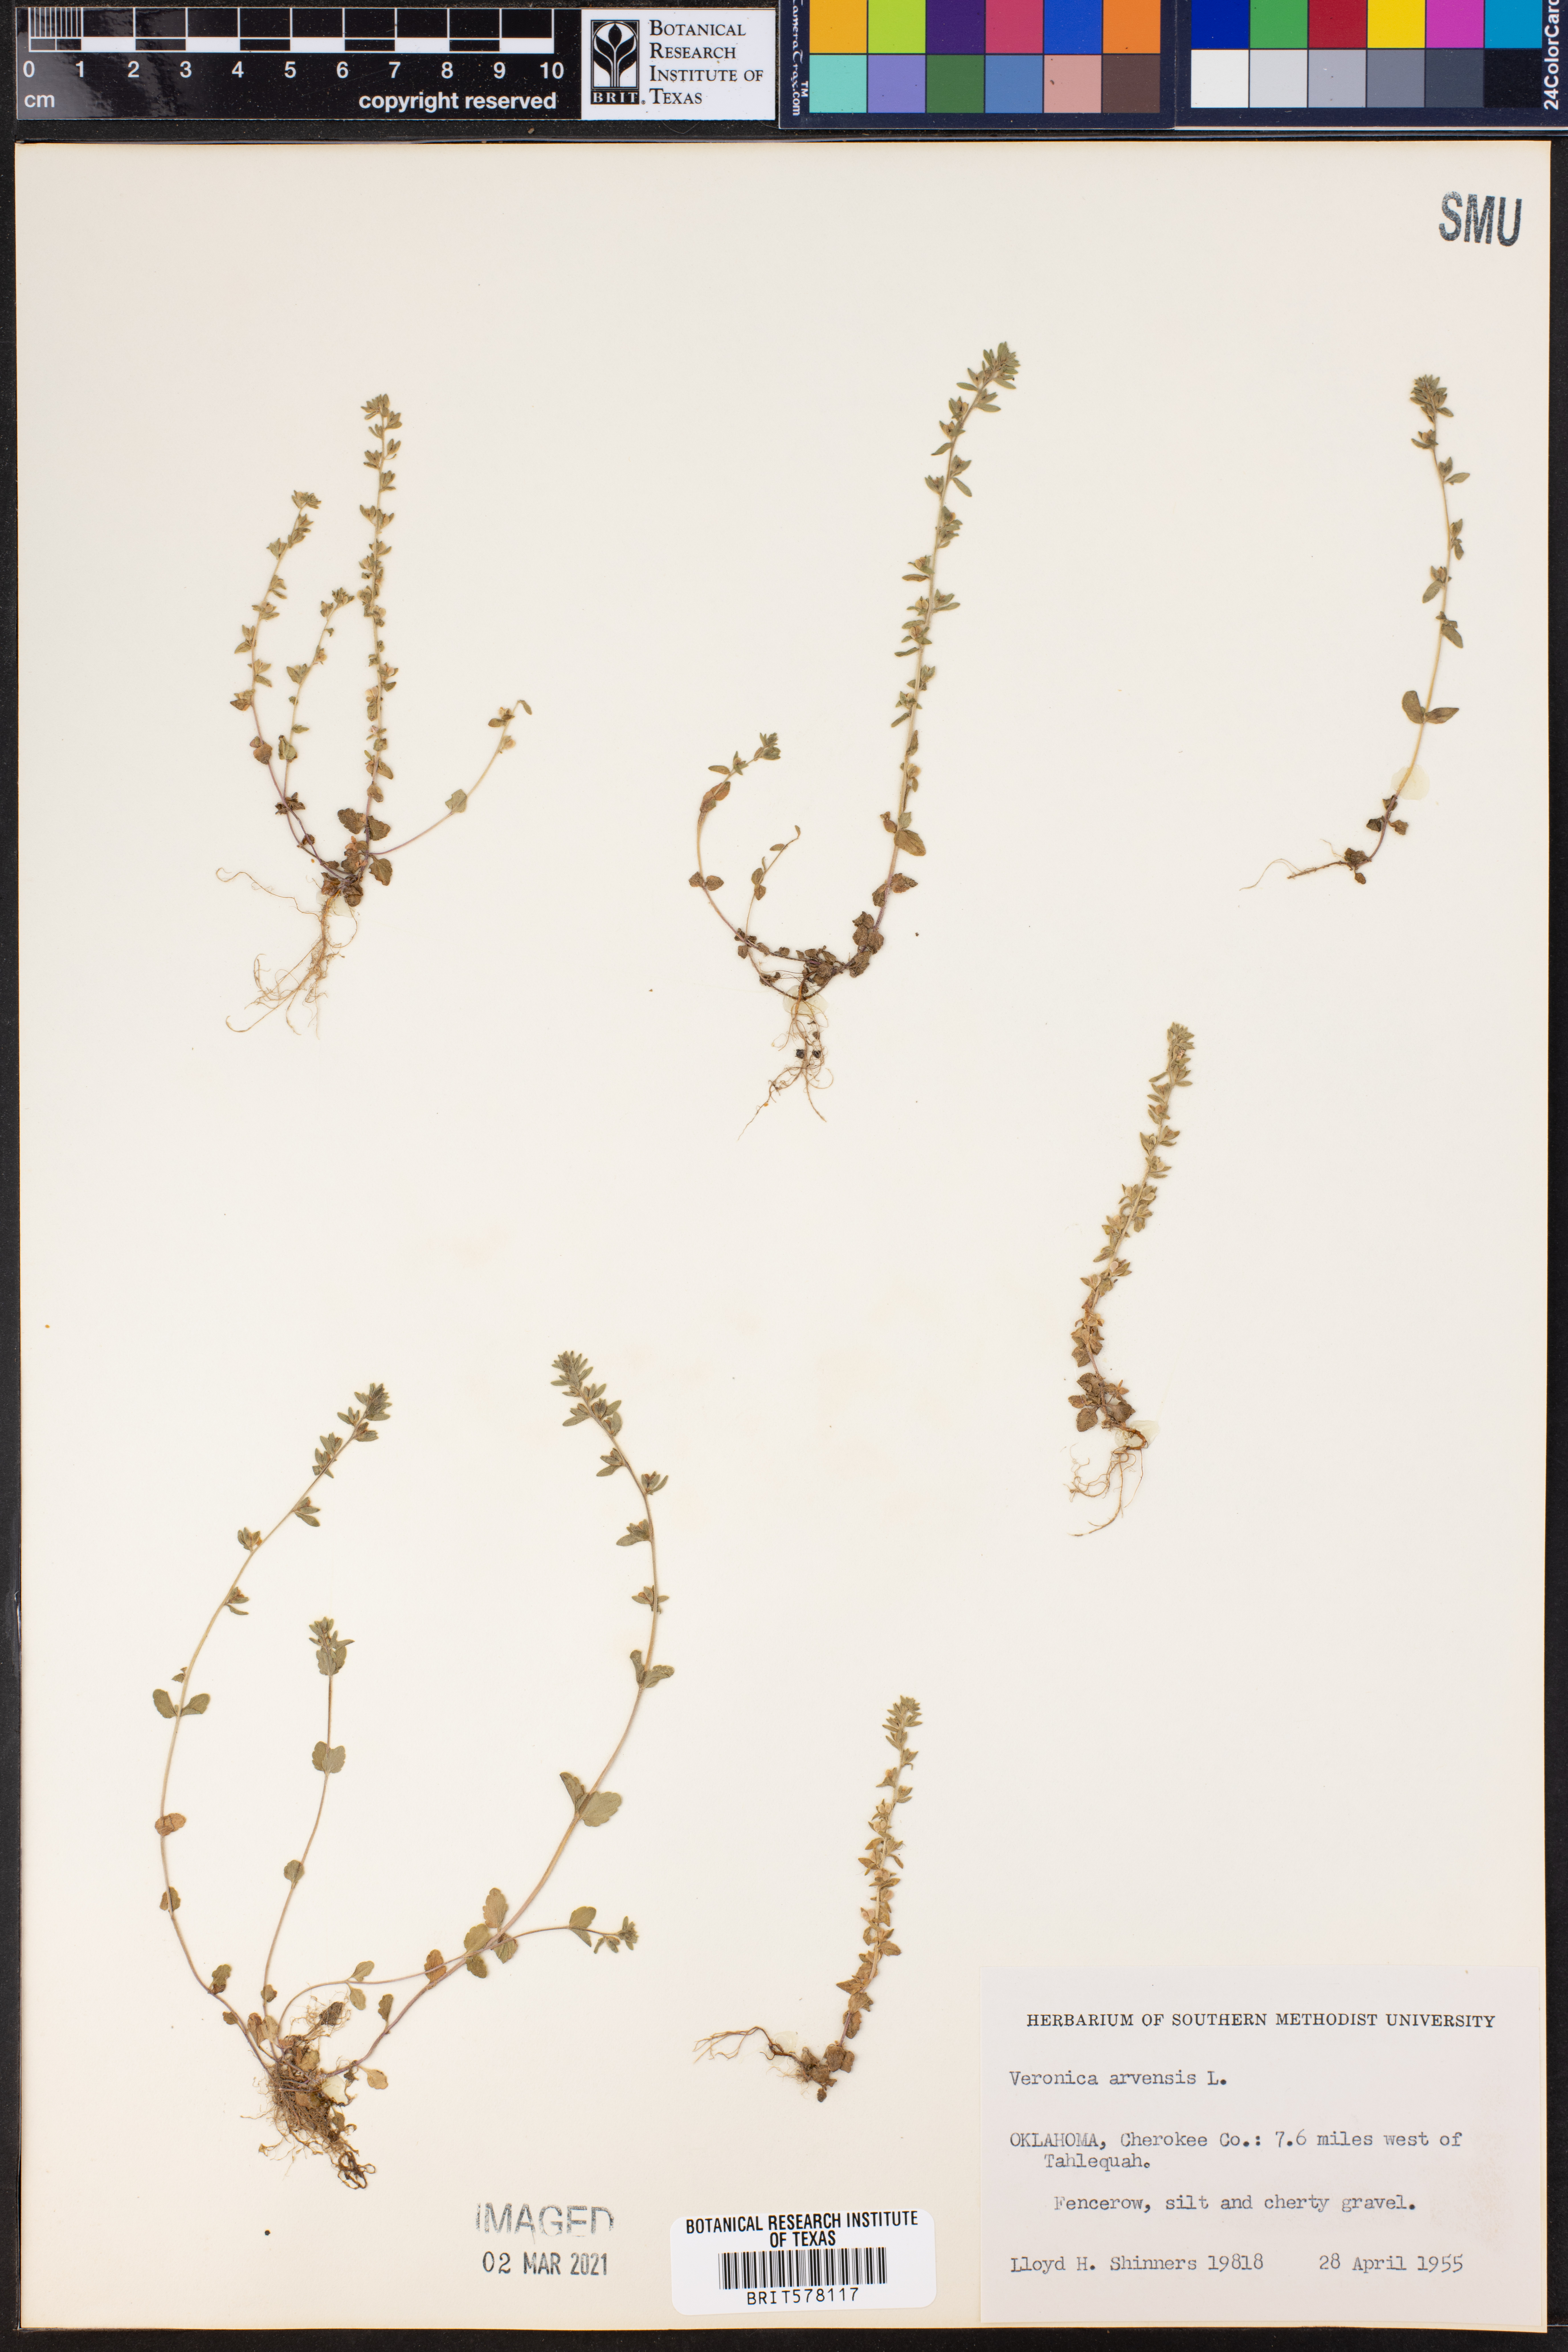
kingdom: Plantae
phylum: Tracheophyta
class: Magnoliopsida
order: Lamiales
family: Plantaginaceae
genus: Veronica
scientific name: Veronica arvensis
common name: Corn speedwell
